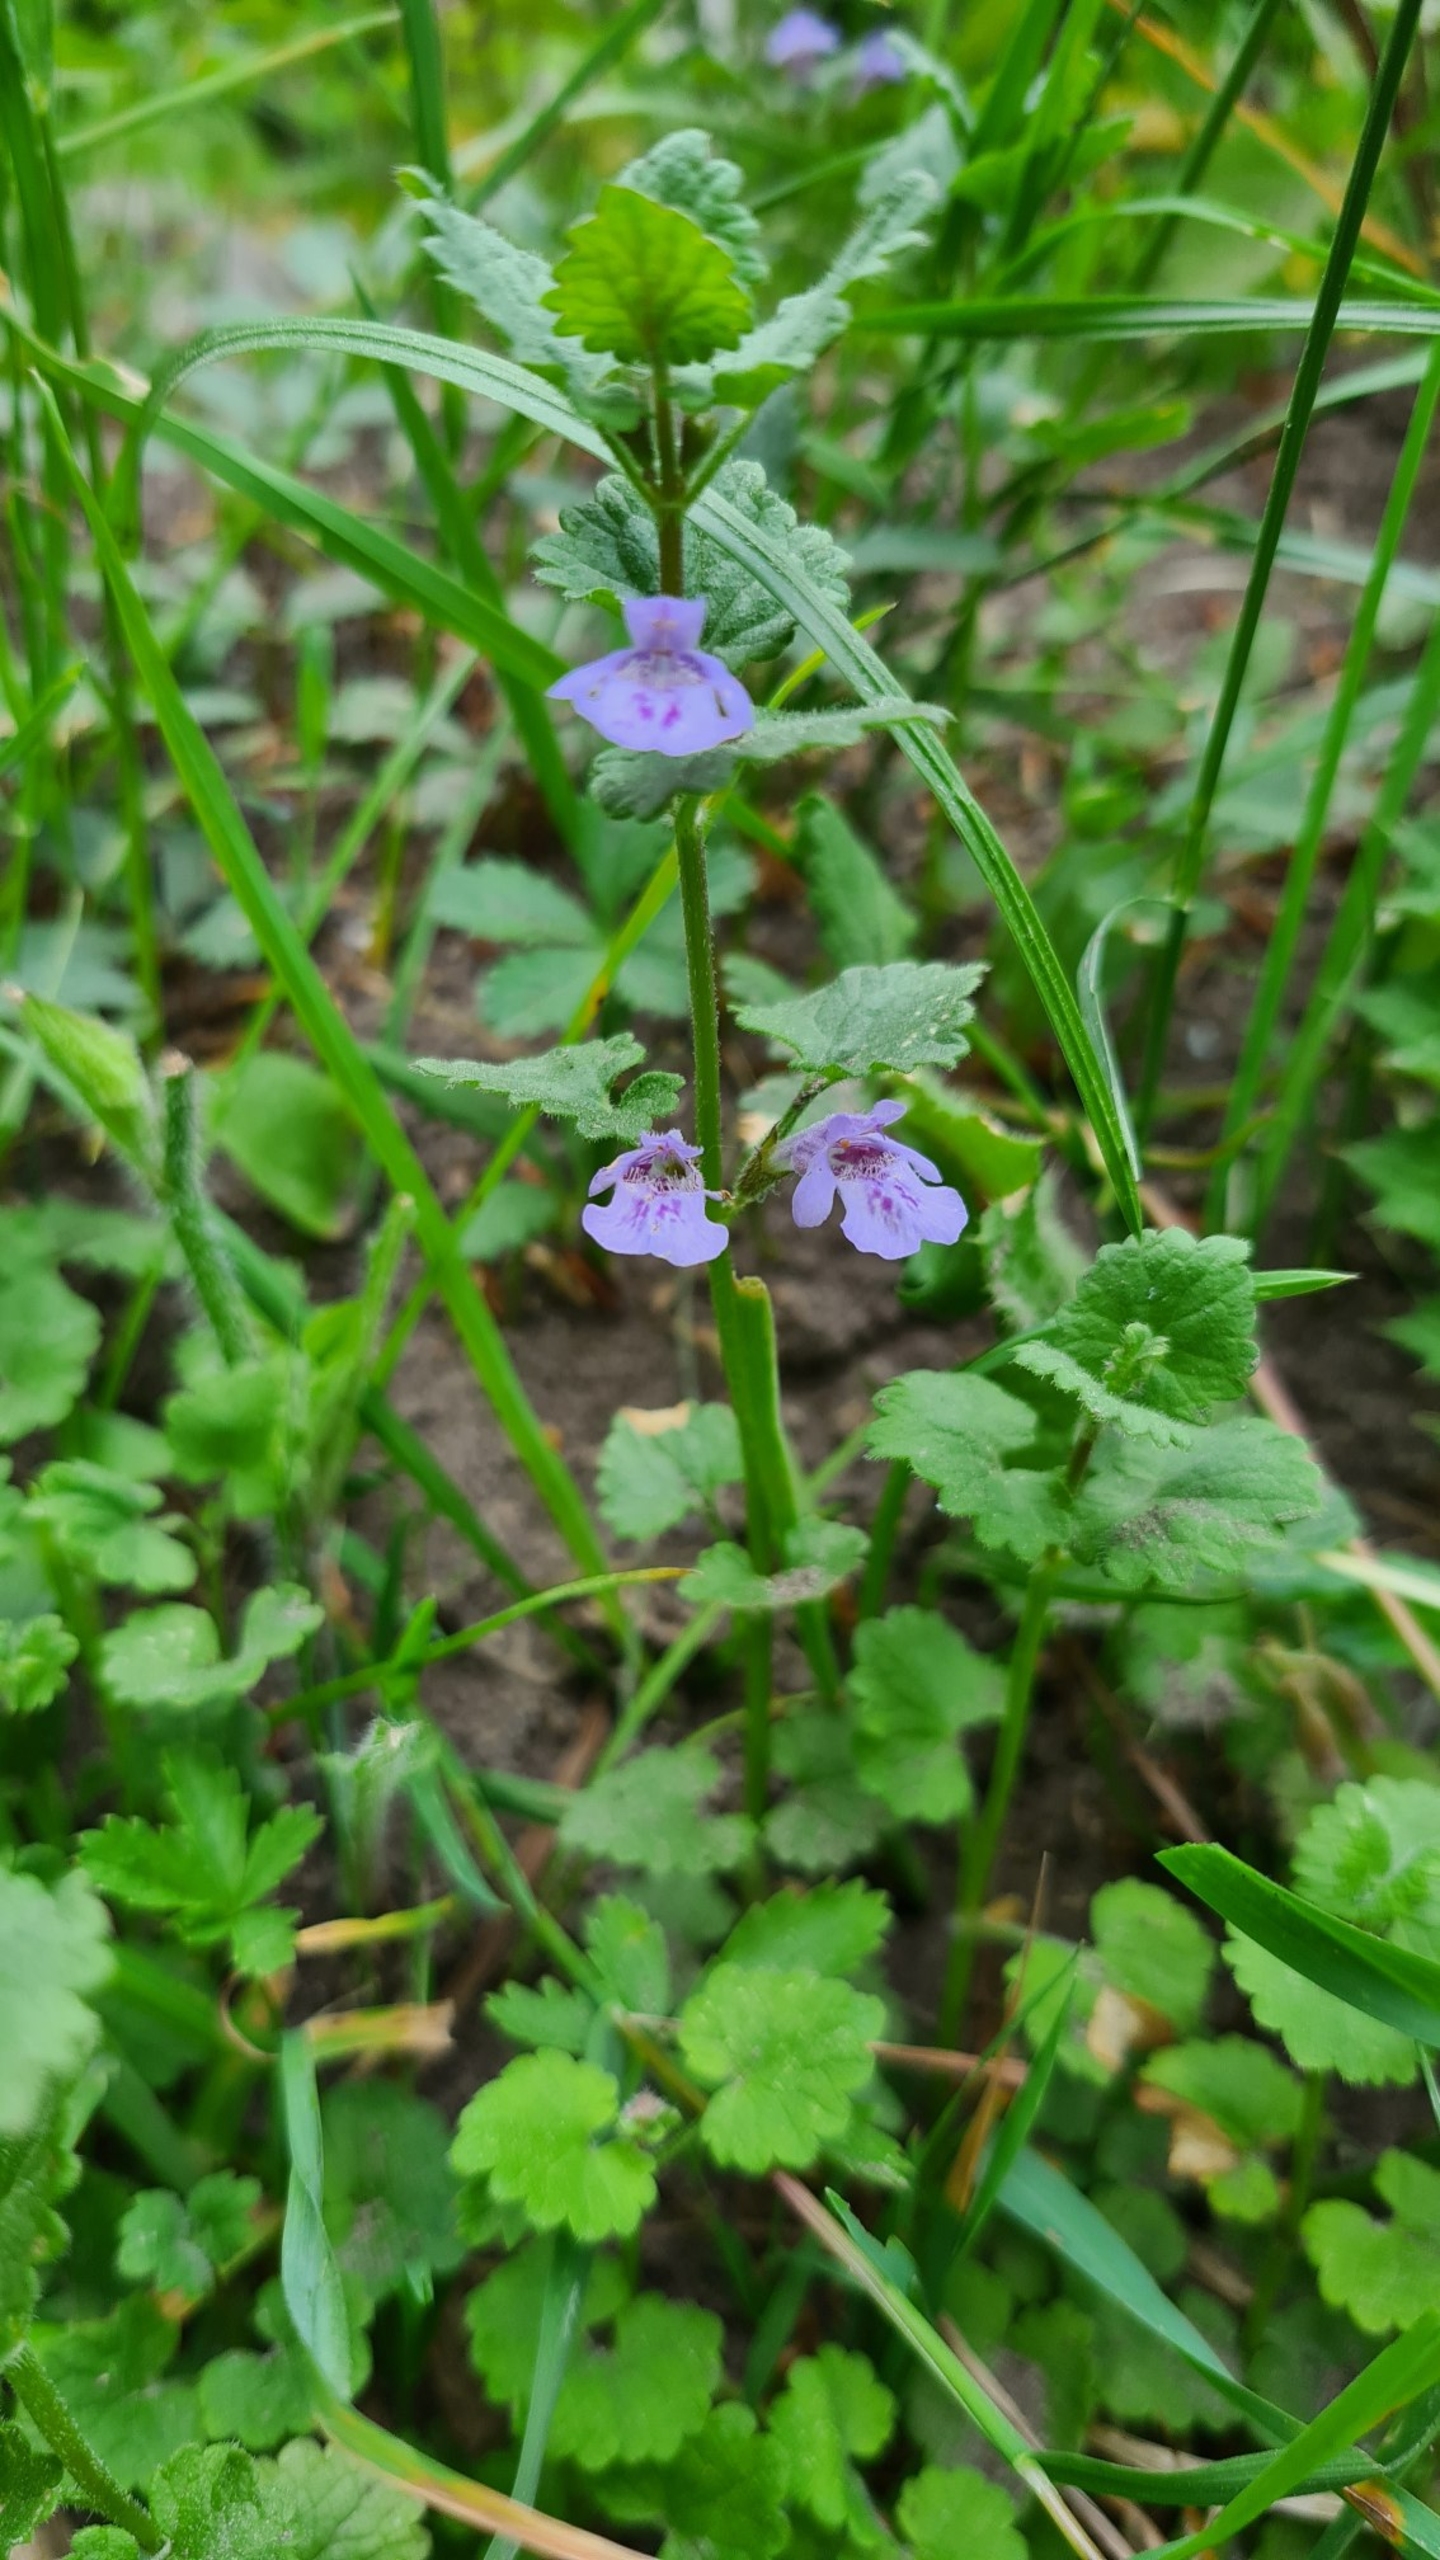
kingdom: Plantae
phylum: Tracheophyta
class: Magnoliopsida
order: Lamiales
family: Lamiaceae
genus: Glechoma
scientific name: Glechoma hederacea
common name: Korsknap
